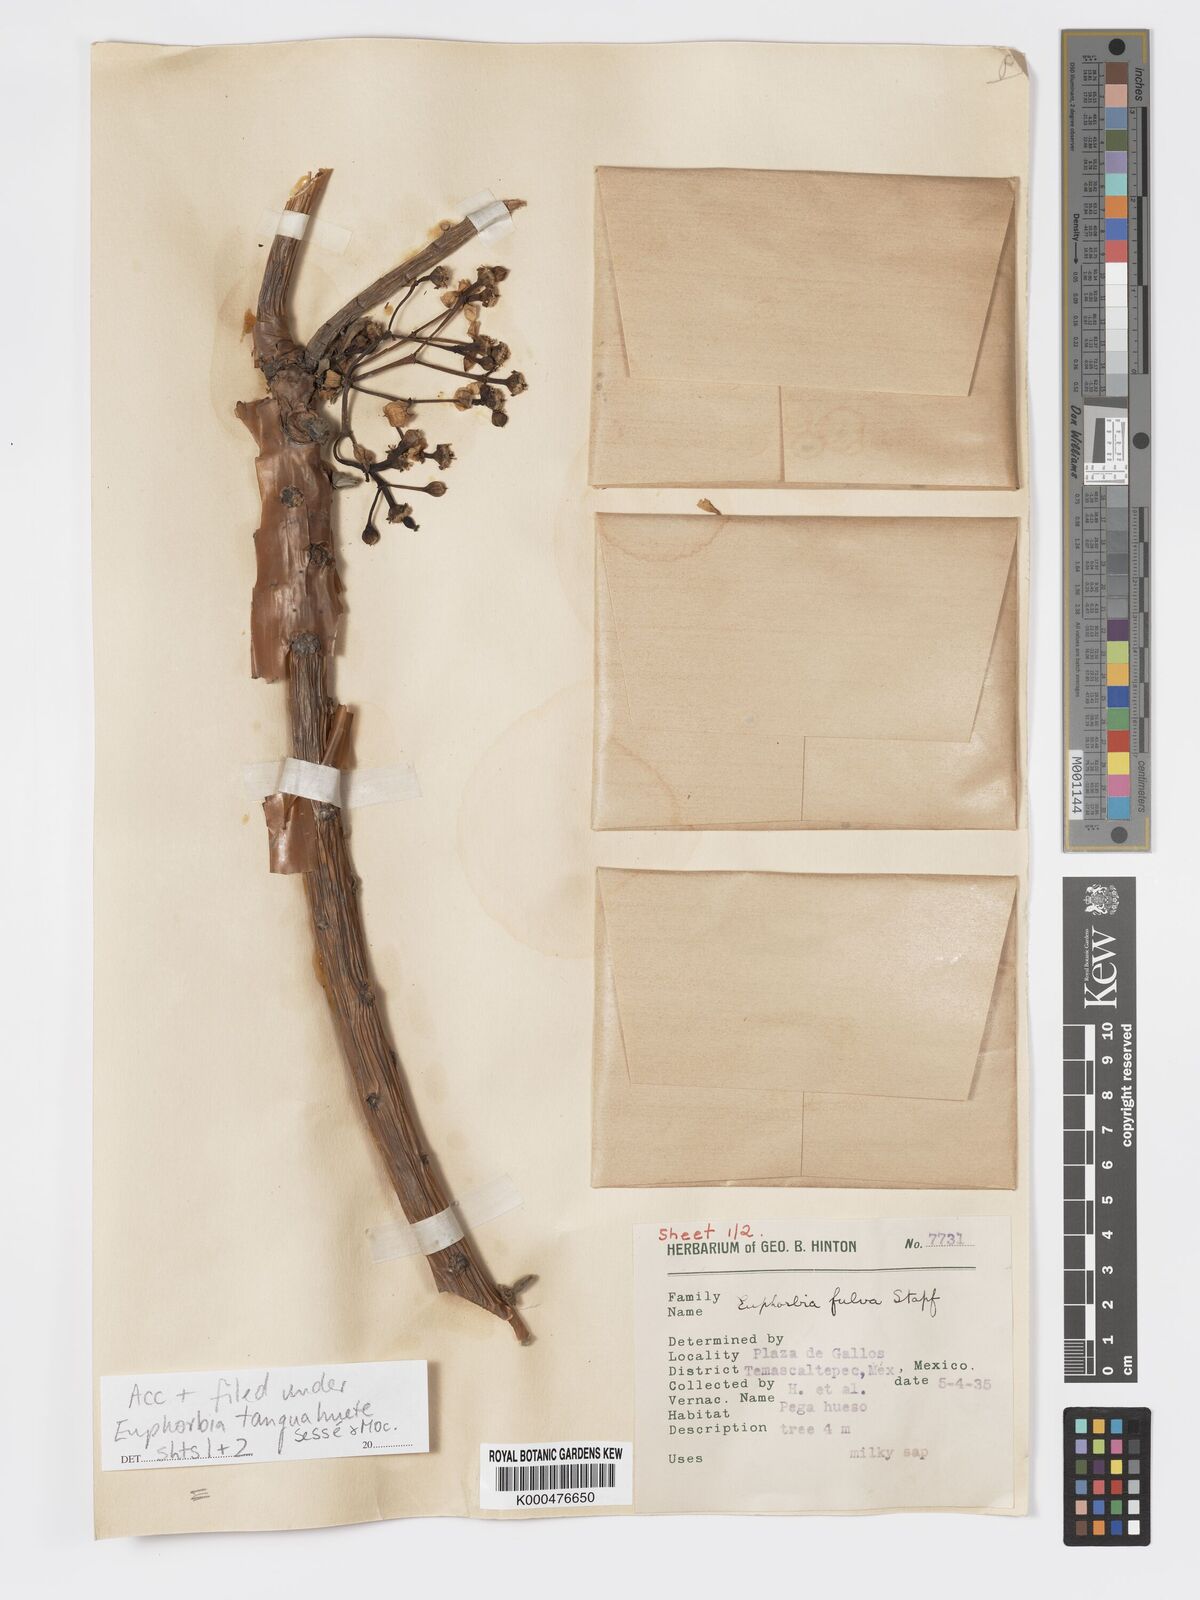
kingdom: Plantae
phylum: Tracheophyta
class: Magnoliopsida
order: Malpighiales
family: Euphorbiaceae
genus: Euphorbia
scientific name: Euphorbia
